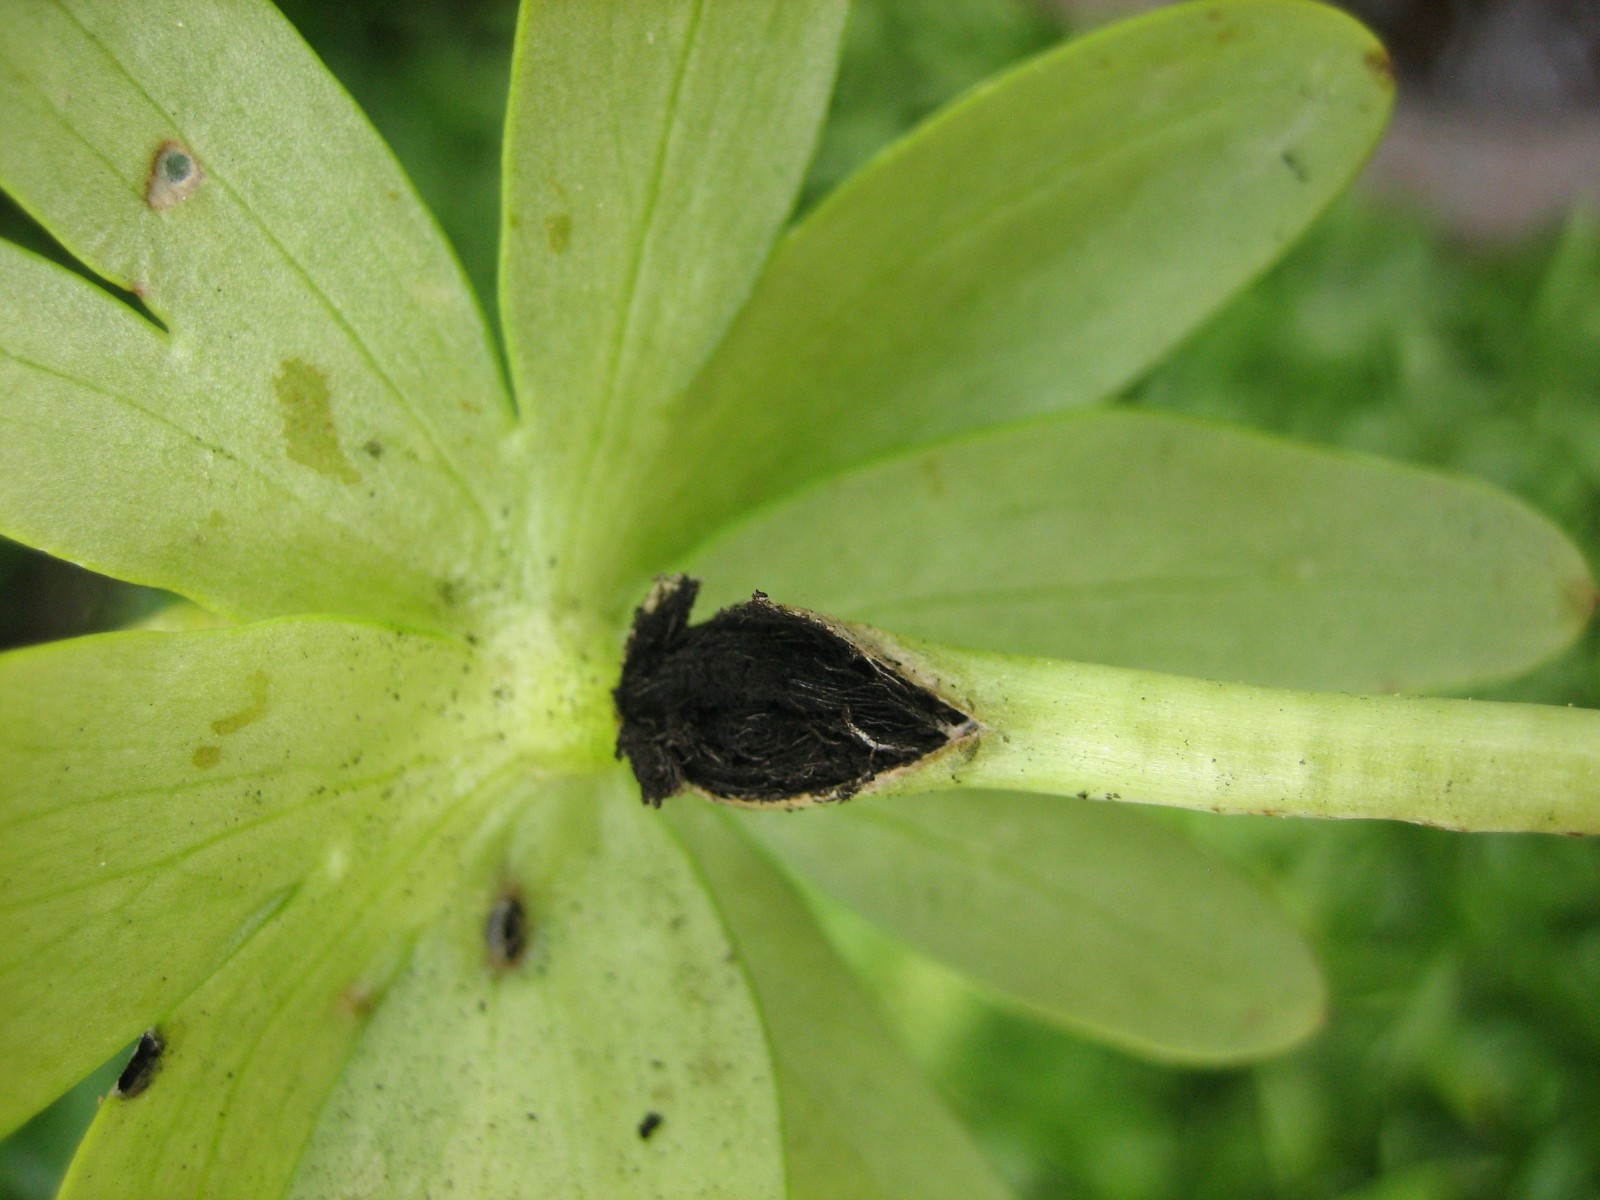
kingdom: Fungi
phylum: Basidiomycota
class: Ustilaginomycetes
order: Urocystidales
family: Urocystidaceae
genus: Urocystis
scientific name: Urocystis eranthidis
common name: erantis-brand
